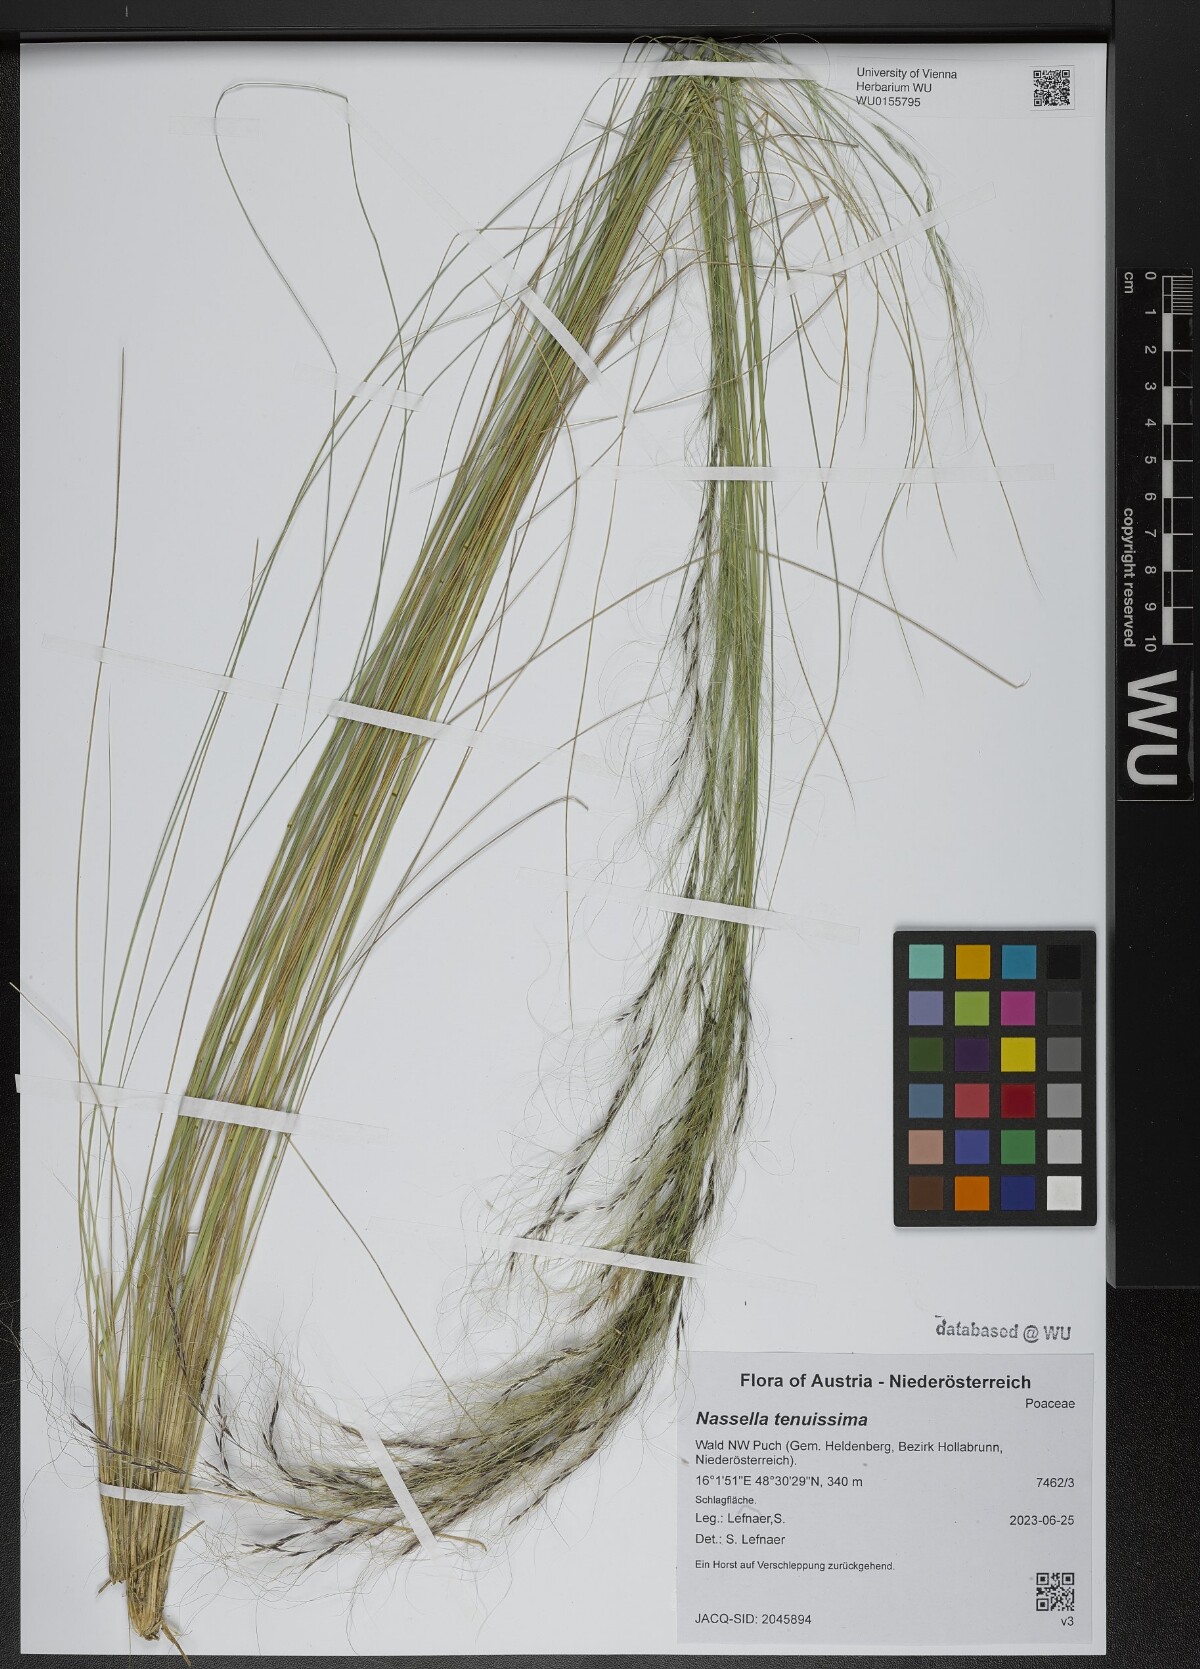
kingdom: Plantae
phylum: Tracheophyta
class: Liliopsida
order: Poales
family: Poaceae
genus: Nassella
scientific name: Nassella tenuissima
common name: Argentine needlegrass
